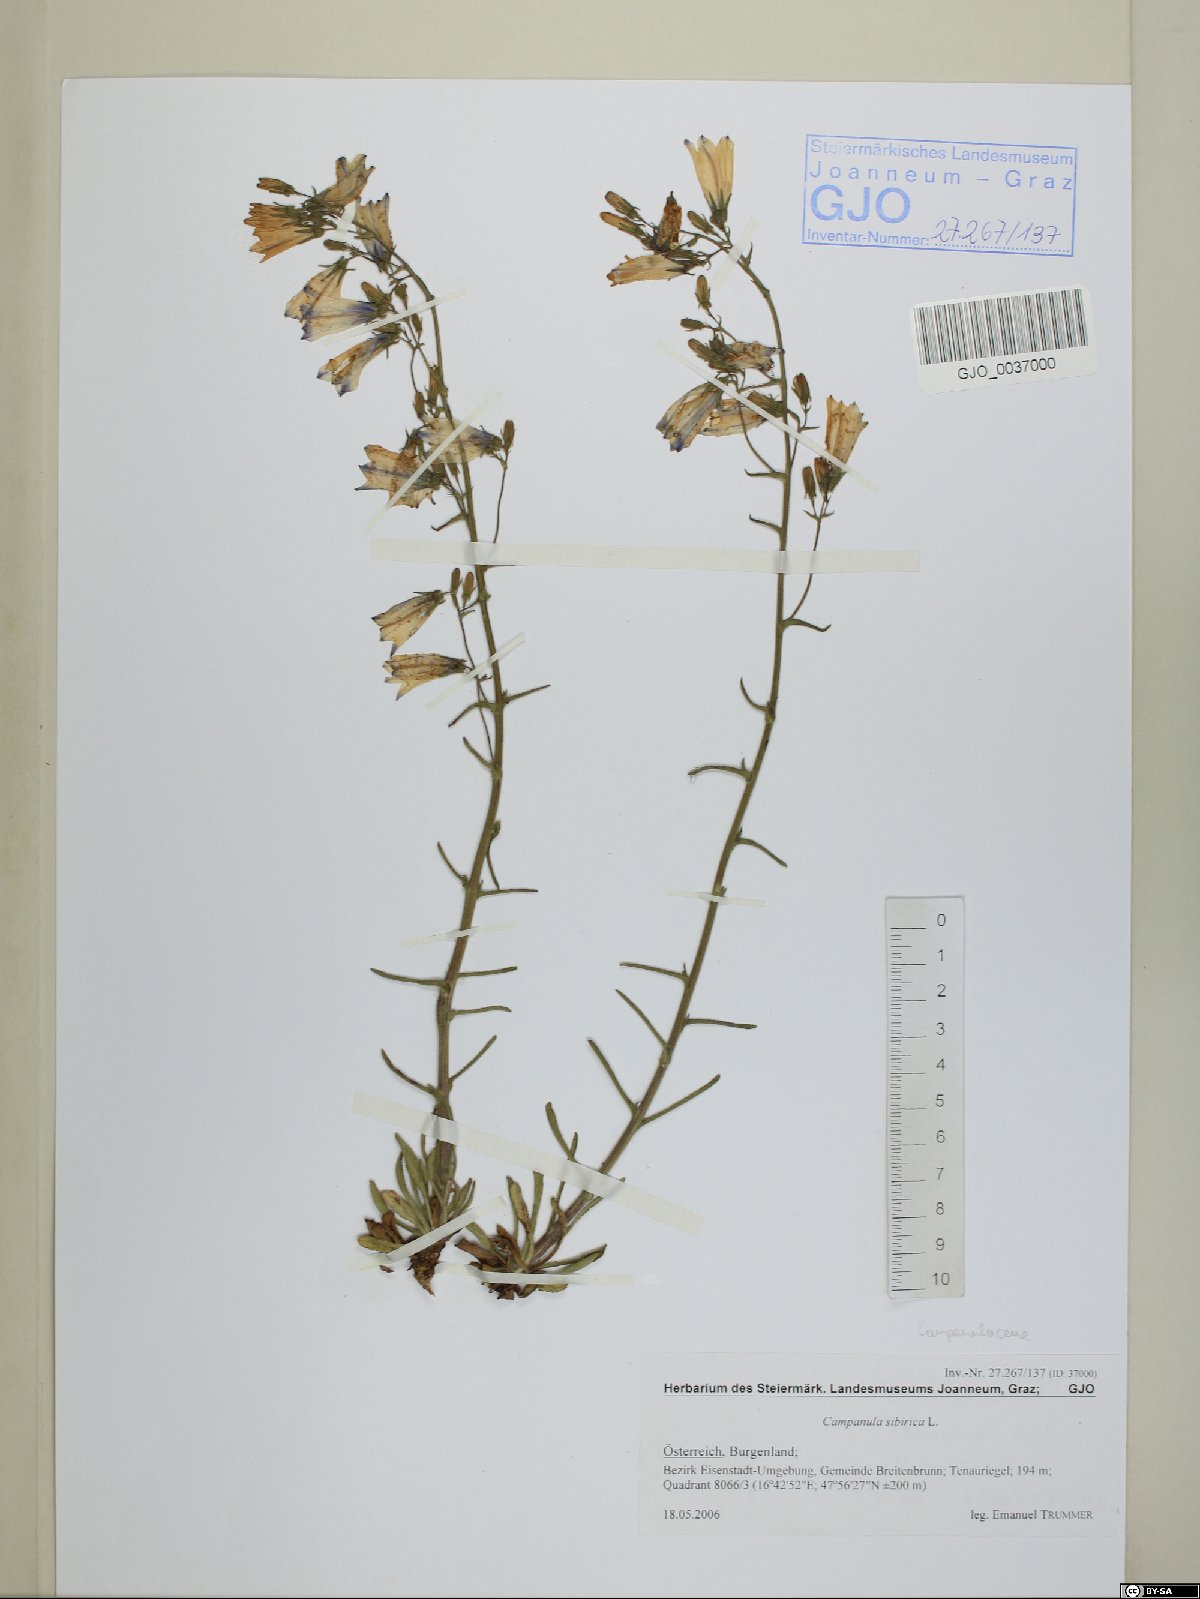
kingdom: Plantae
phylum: Tracheophyta
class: Magnoliopsida
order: Asterales
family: Campanulaceae
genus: Campanula
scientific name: Campanula sibirica
